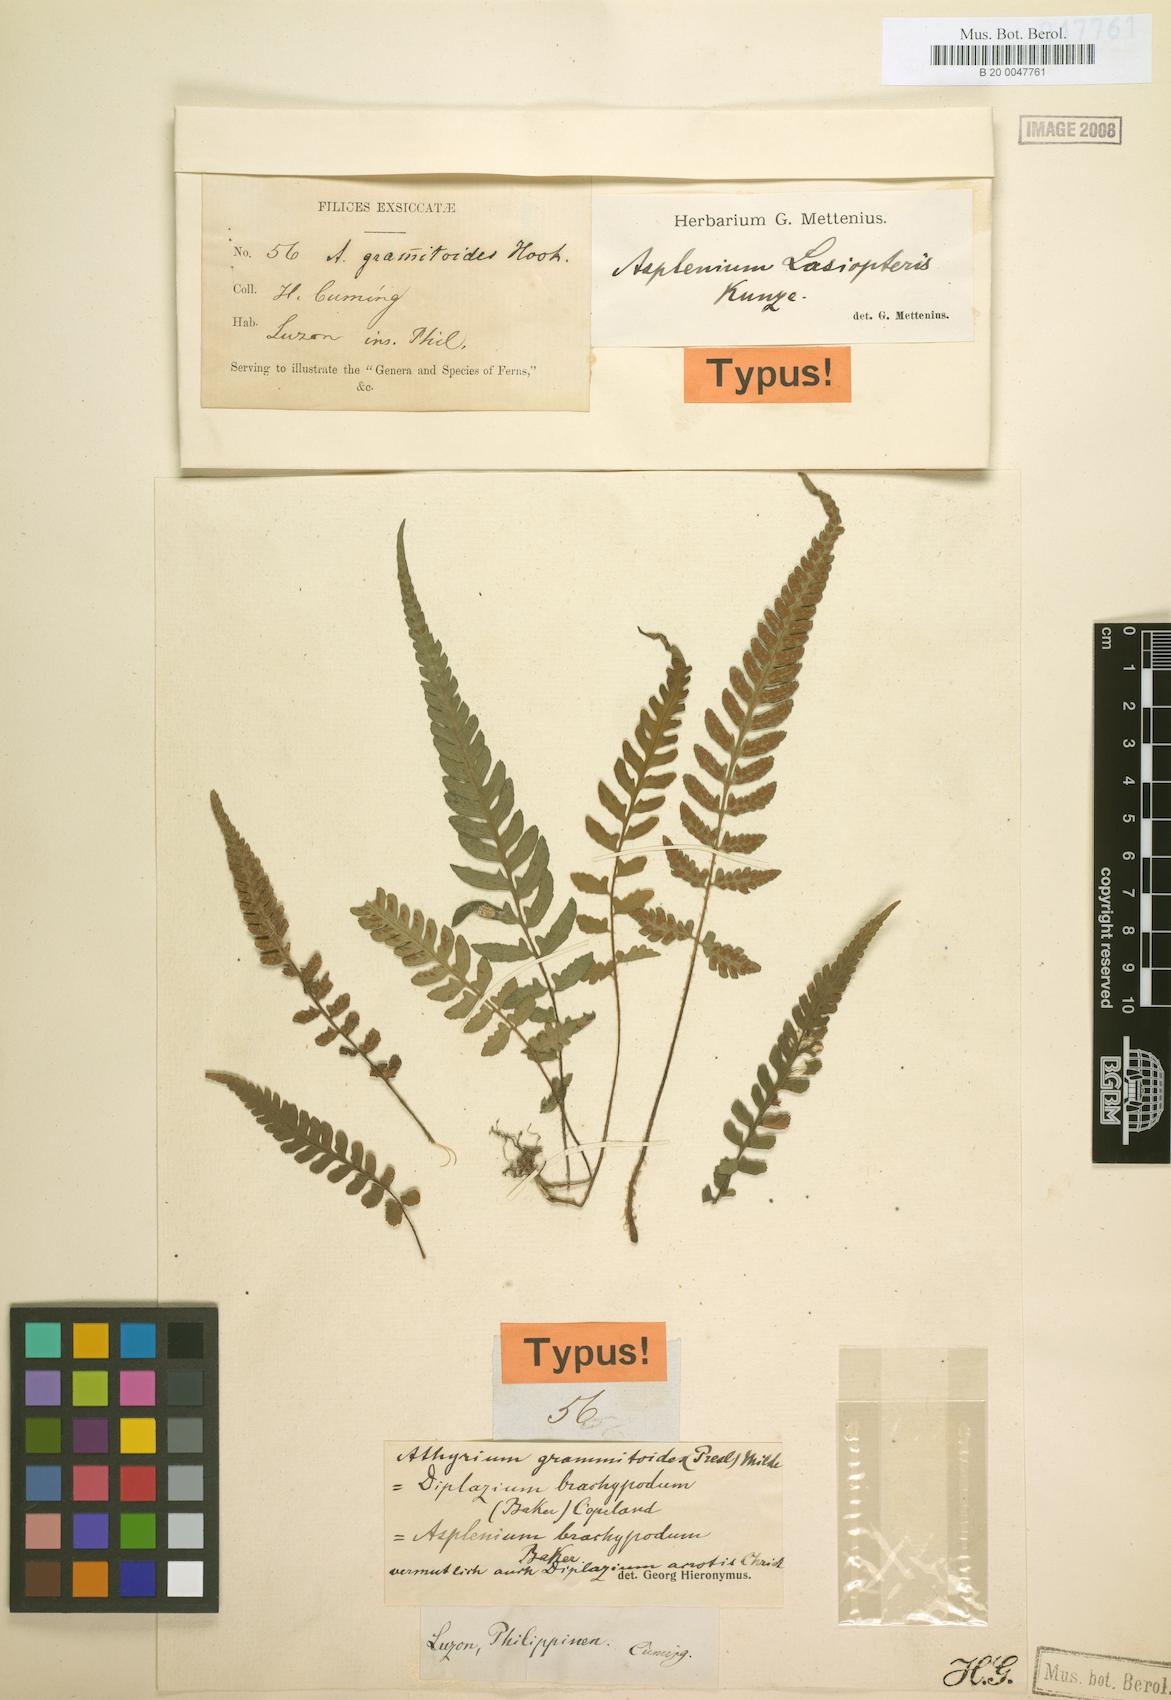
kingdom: Plantae
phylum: Tracheophyta
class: Polypodiopsida
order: Polypodiales
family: Athyriaceae
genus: Deparia
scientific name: Deparia confluens
